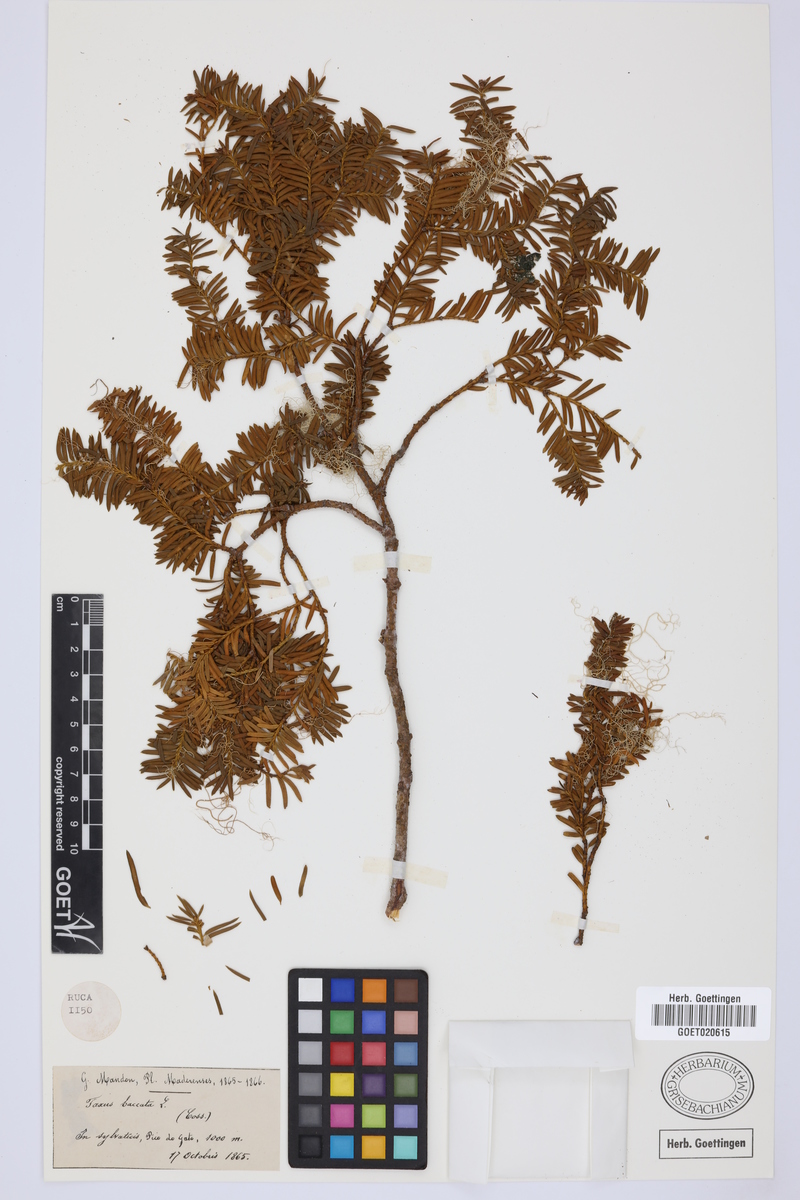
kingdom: Plantae
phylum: Tracheophyta
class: Pinopsida
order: Pinales
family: Taxaceae
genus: Taxus
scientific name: Taxus baccata
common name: Yew
